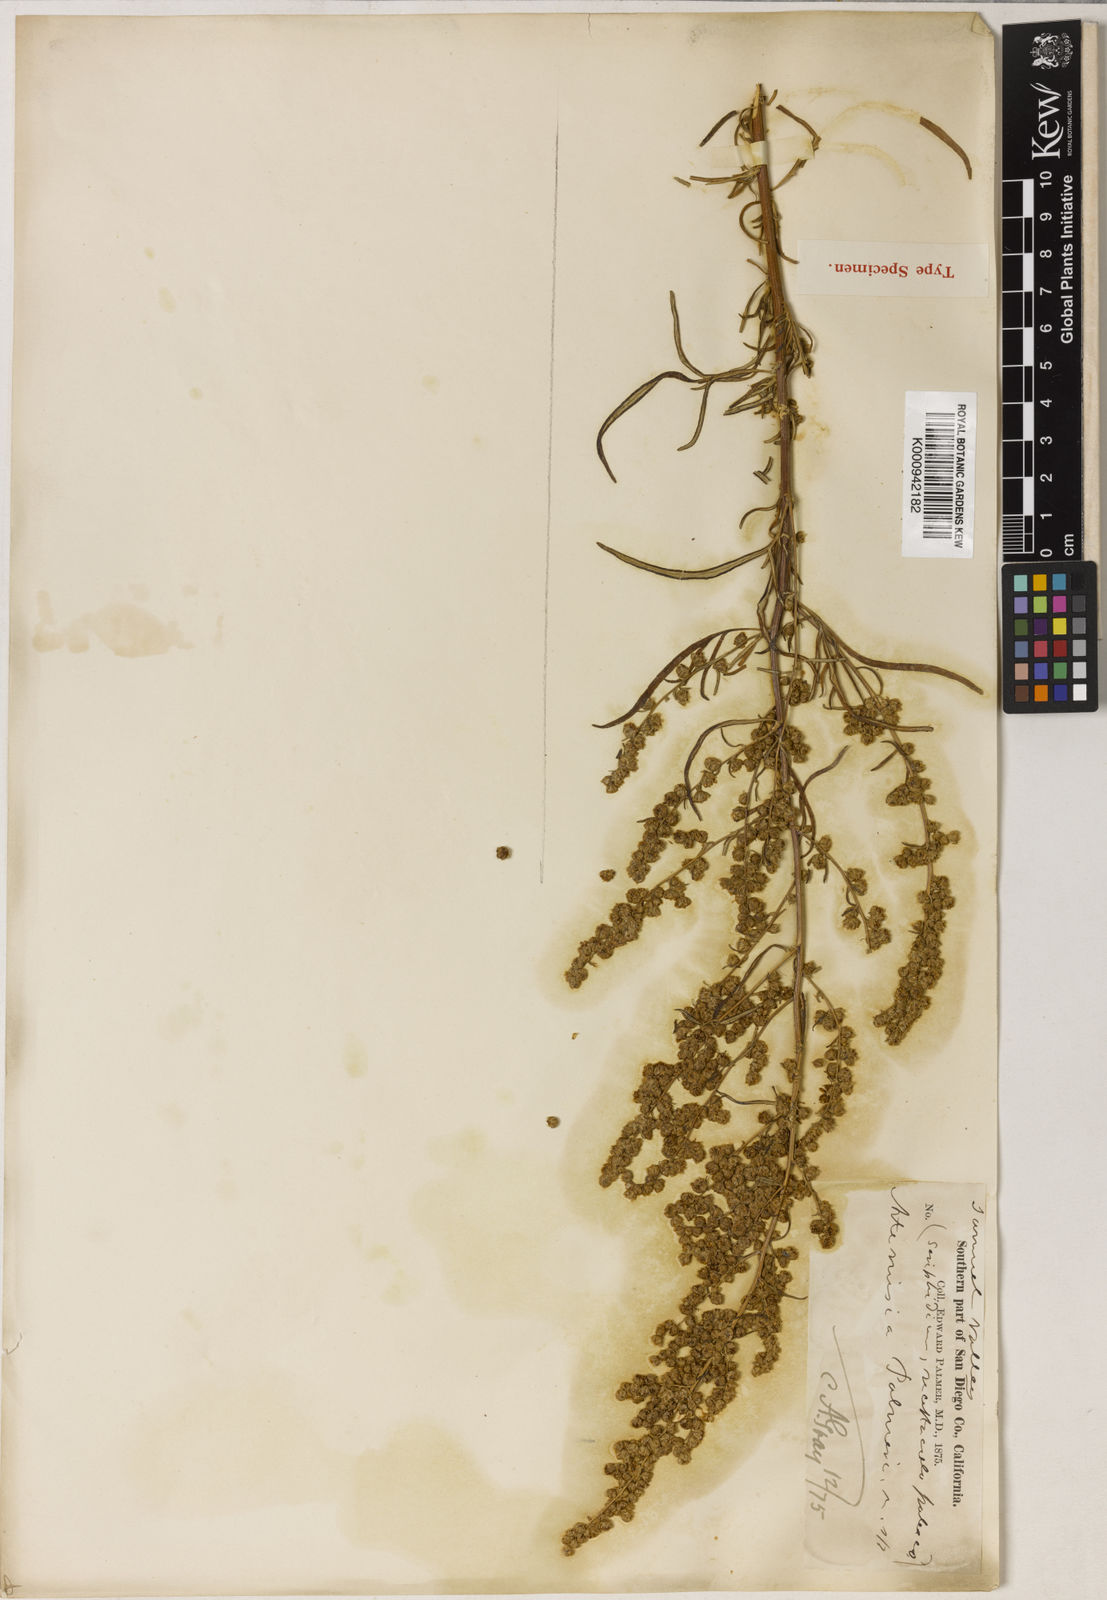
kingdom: Plantae
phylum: Tracheophyta
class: Magnoliopsida
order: Asterales
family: Asteraceae
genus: Artemisia
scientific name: Artemisia palmeri
